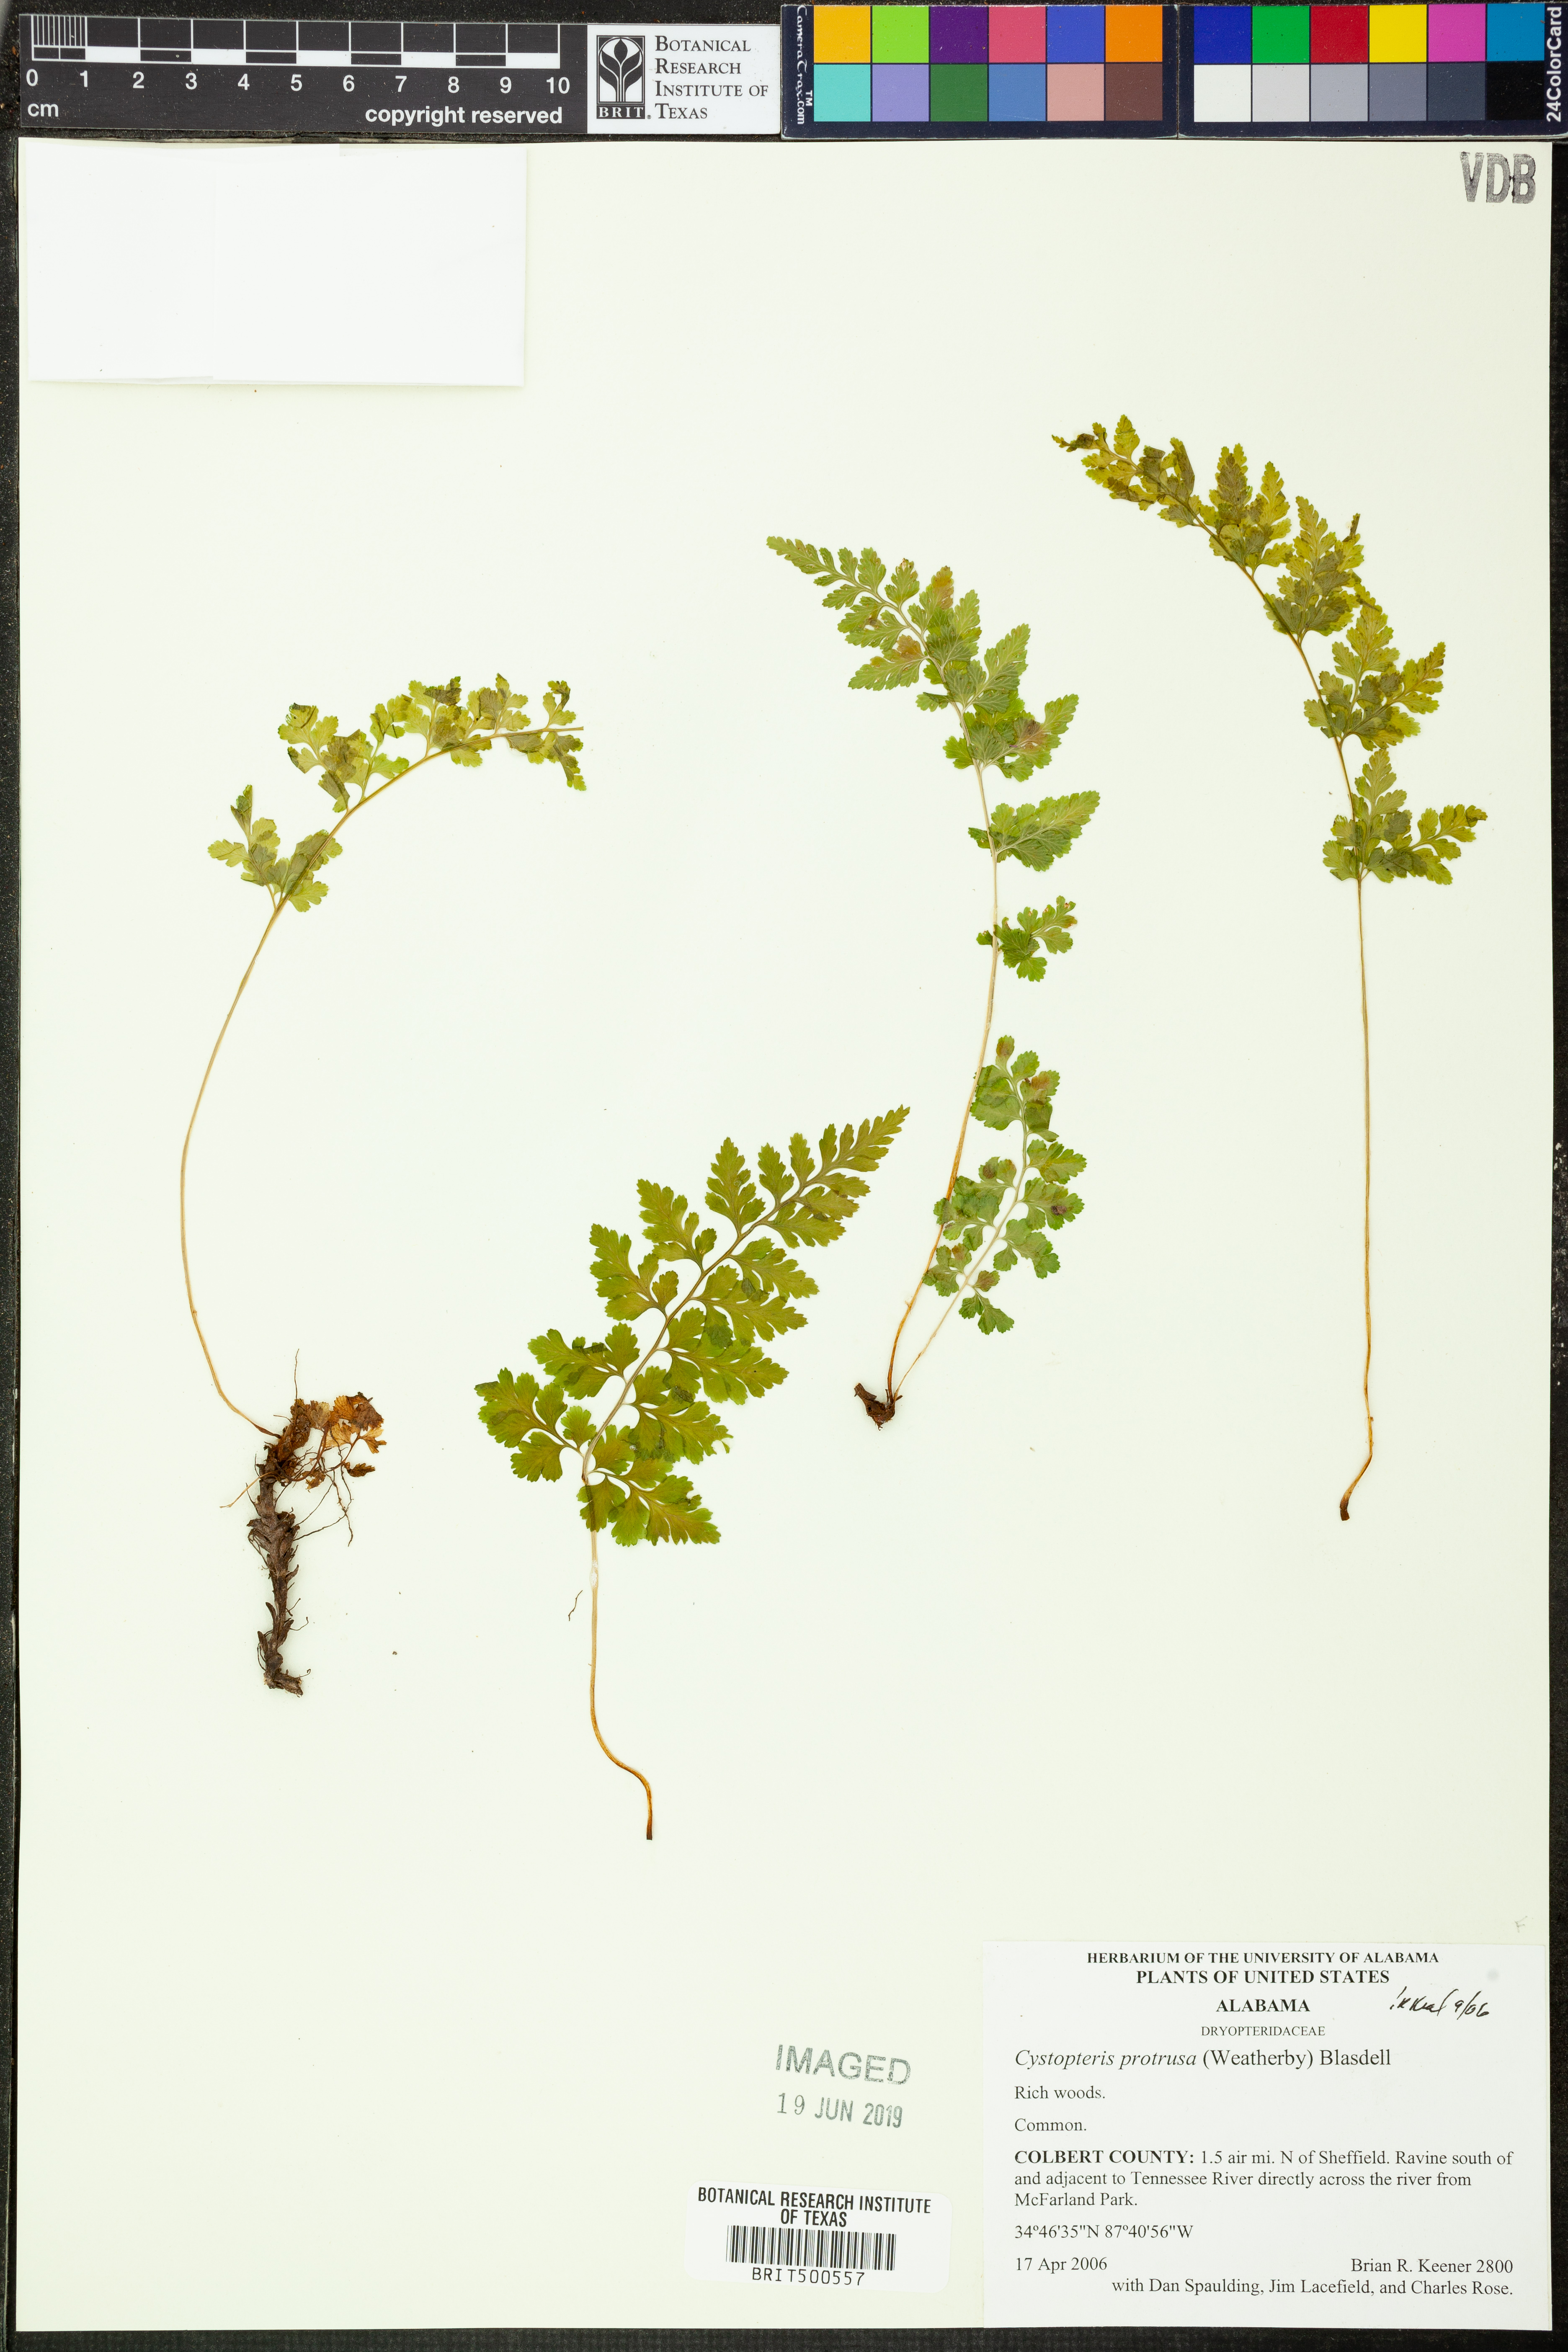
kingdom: Plantae
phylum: Tracheophyta
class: Polypodiopsida
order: Polypodiales
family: Cystopteridaceae
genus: Cystopteris
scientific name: Cystopteris protrusa
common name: Lowland brittle fern
